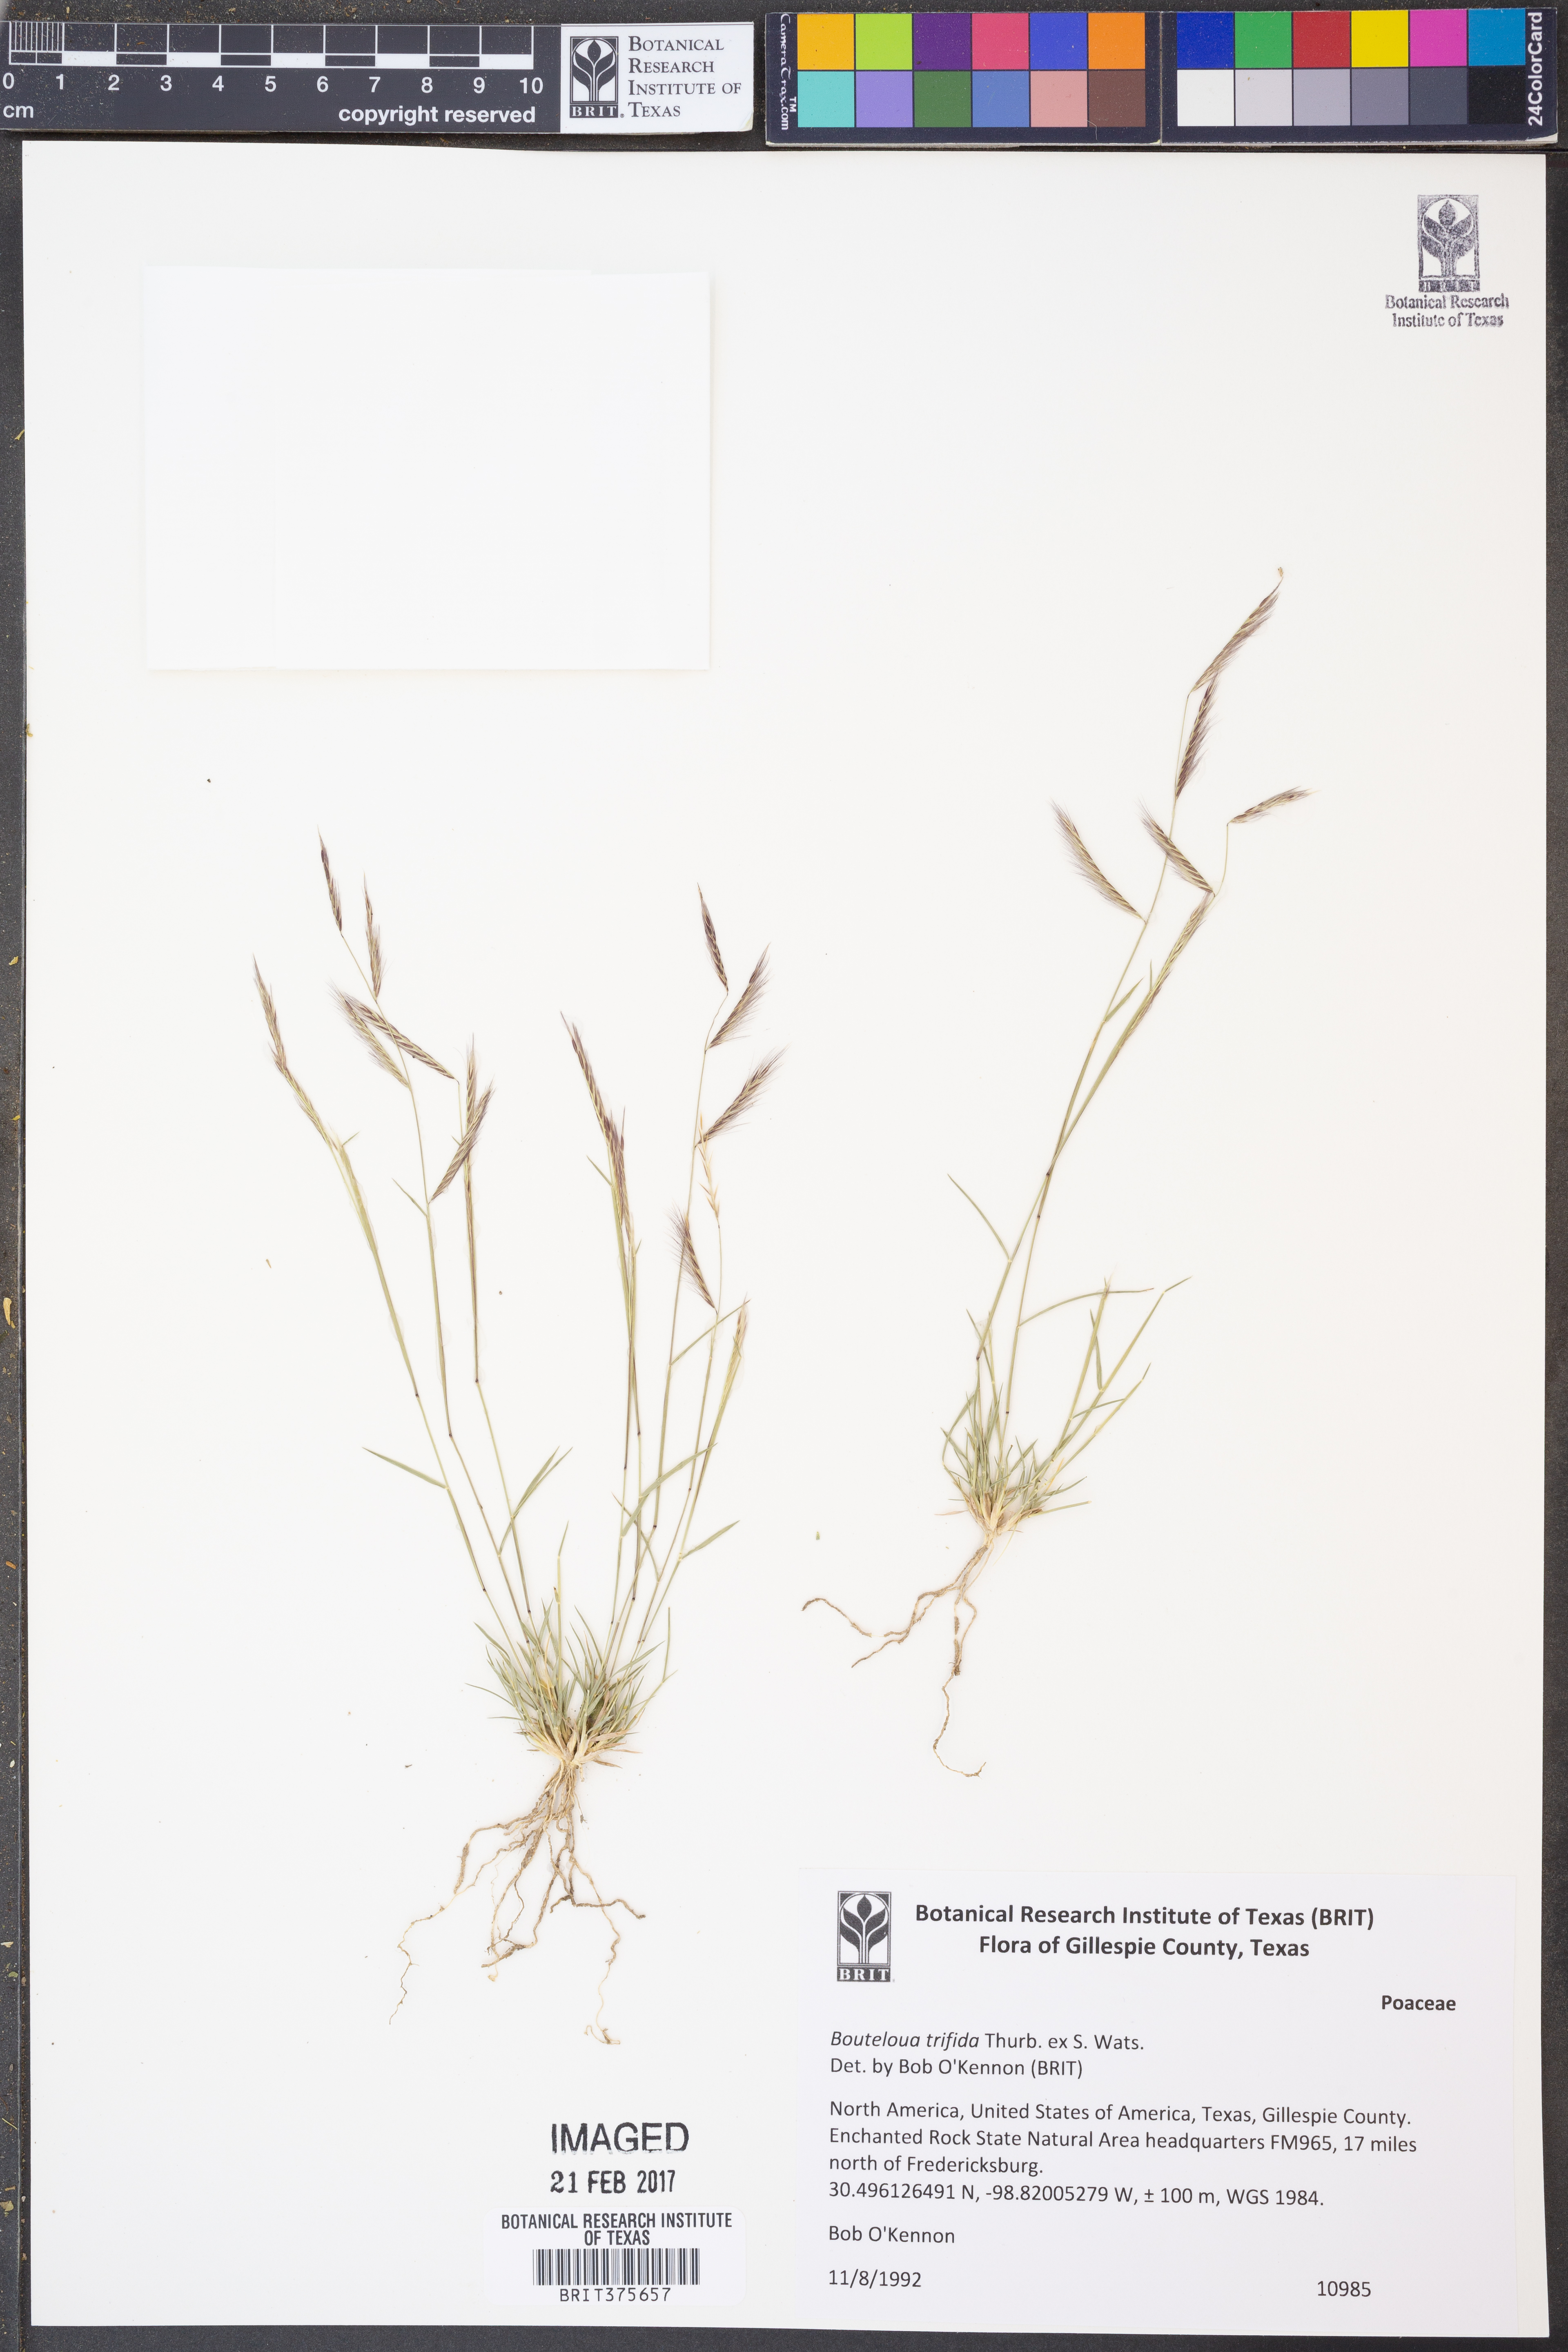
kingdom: Plantae
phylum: Tracheophyta
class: Liliopsida
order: Poales
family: Poaceae
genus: Bouteloua
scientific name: Bouteloua trifida
